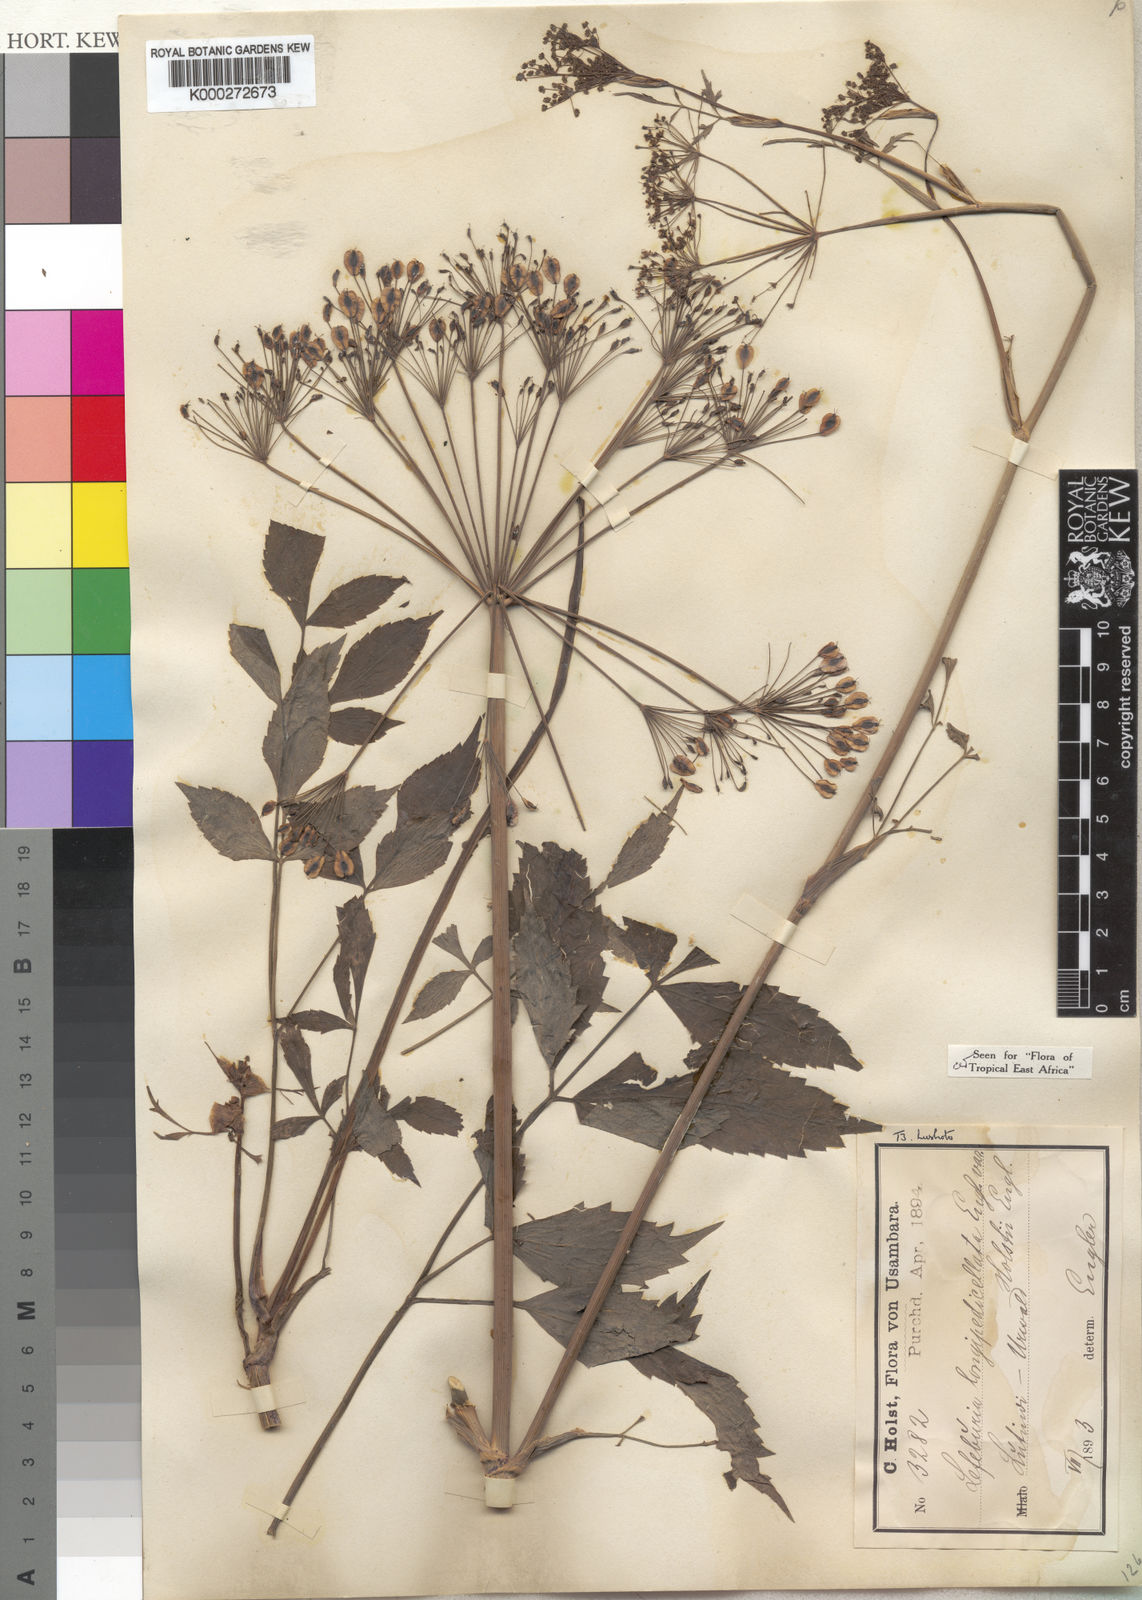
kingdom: Plantae
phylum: Tracheophyta
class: Magnoliopsida
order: Apiales
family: Apiaceae
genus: Lefebvrea
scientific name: Lefebvrea
